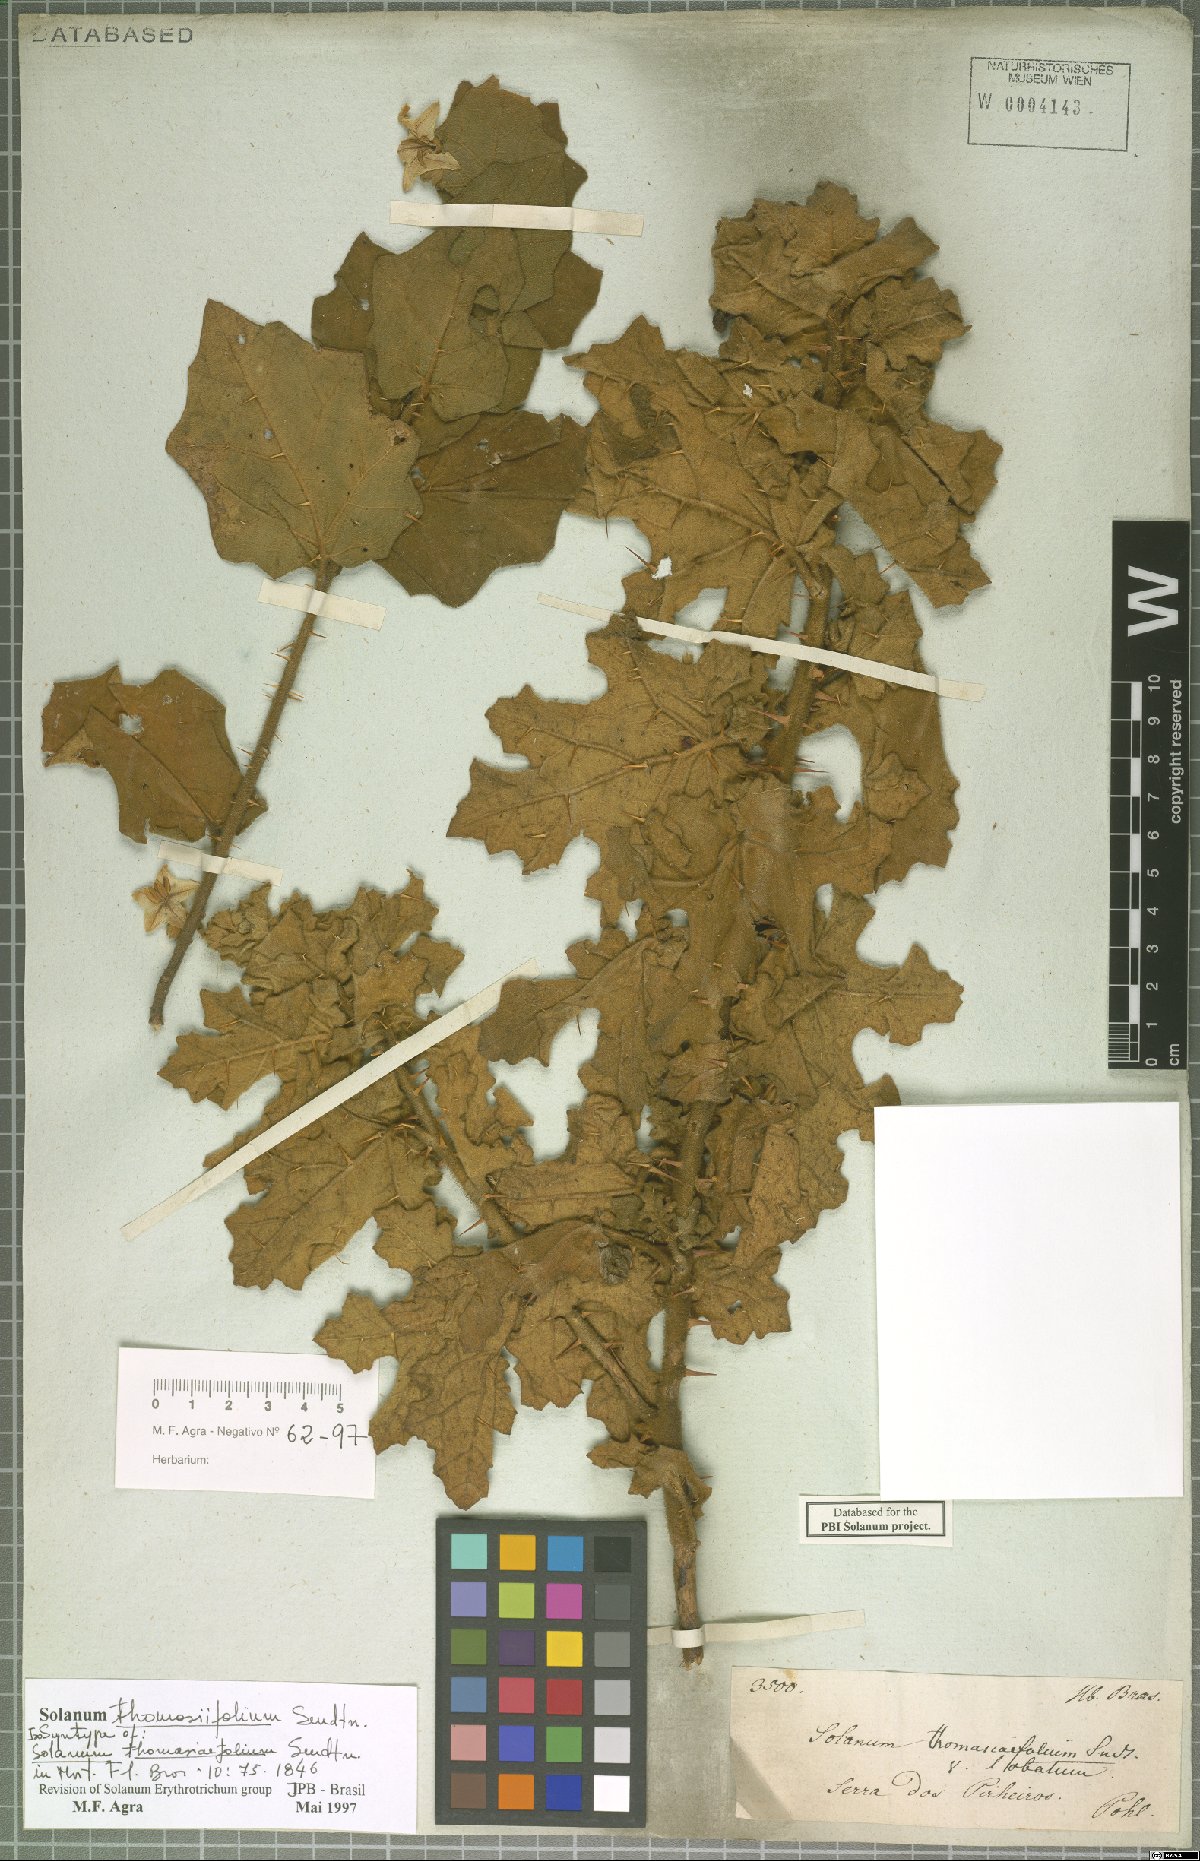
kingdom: Plantae
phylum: Tracheophyta
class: Magnoliopsida
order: Solanales
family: Solanaceae
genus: Solanum
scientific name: Solanum thomasiifolium
